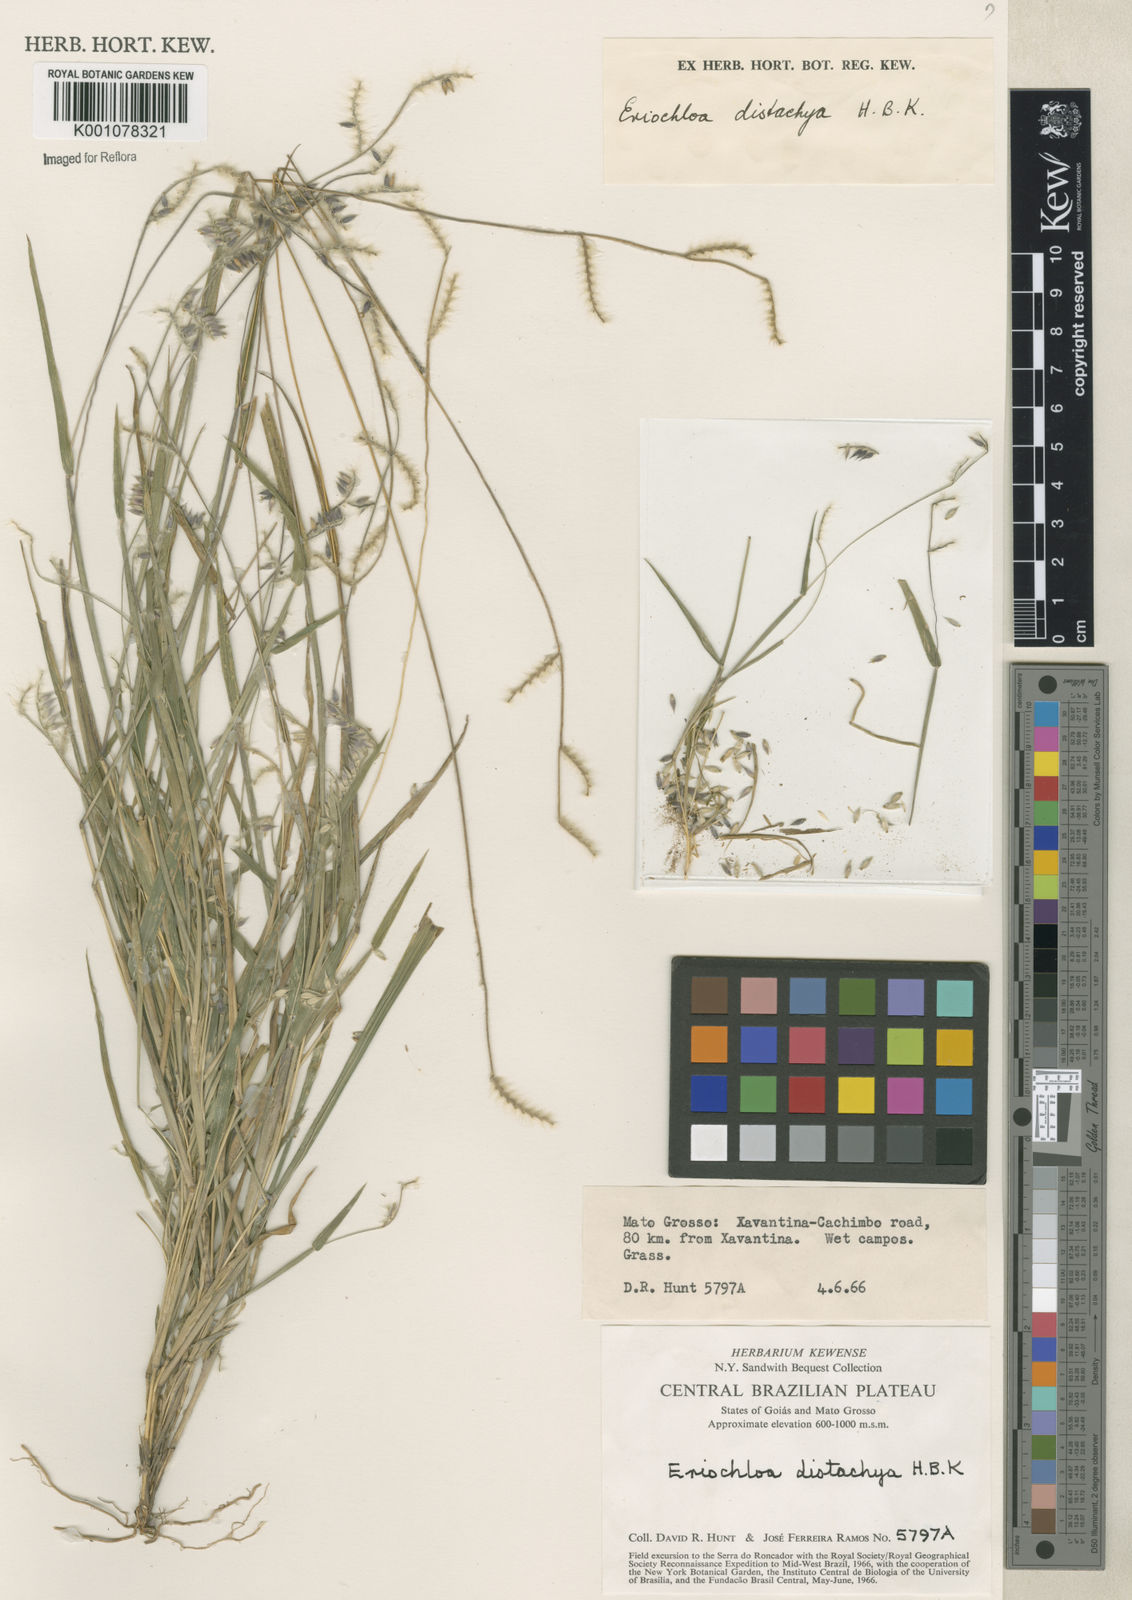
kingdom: Plantae
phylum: Tracheophyta
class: Liliopsida
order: Poales
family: Poaceae
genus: Eriochloa
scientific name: Eriochloa distachya
